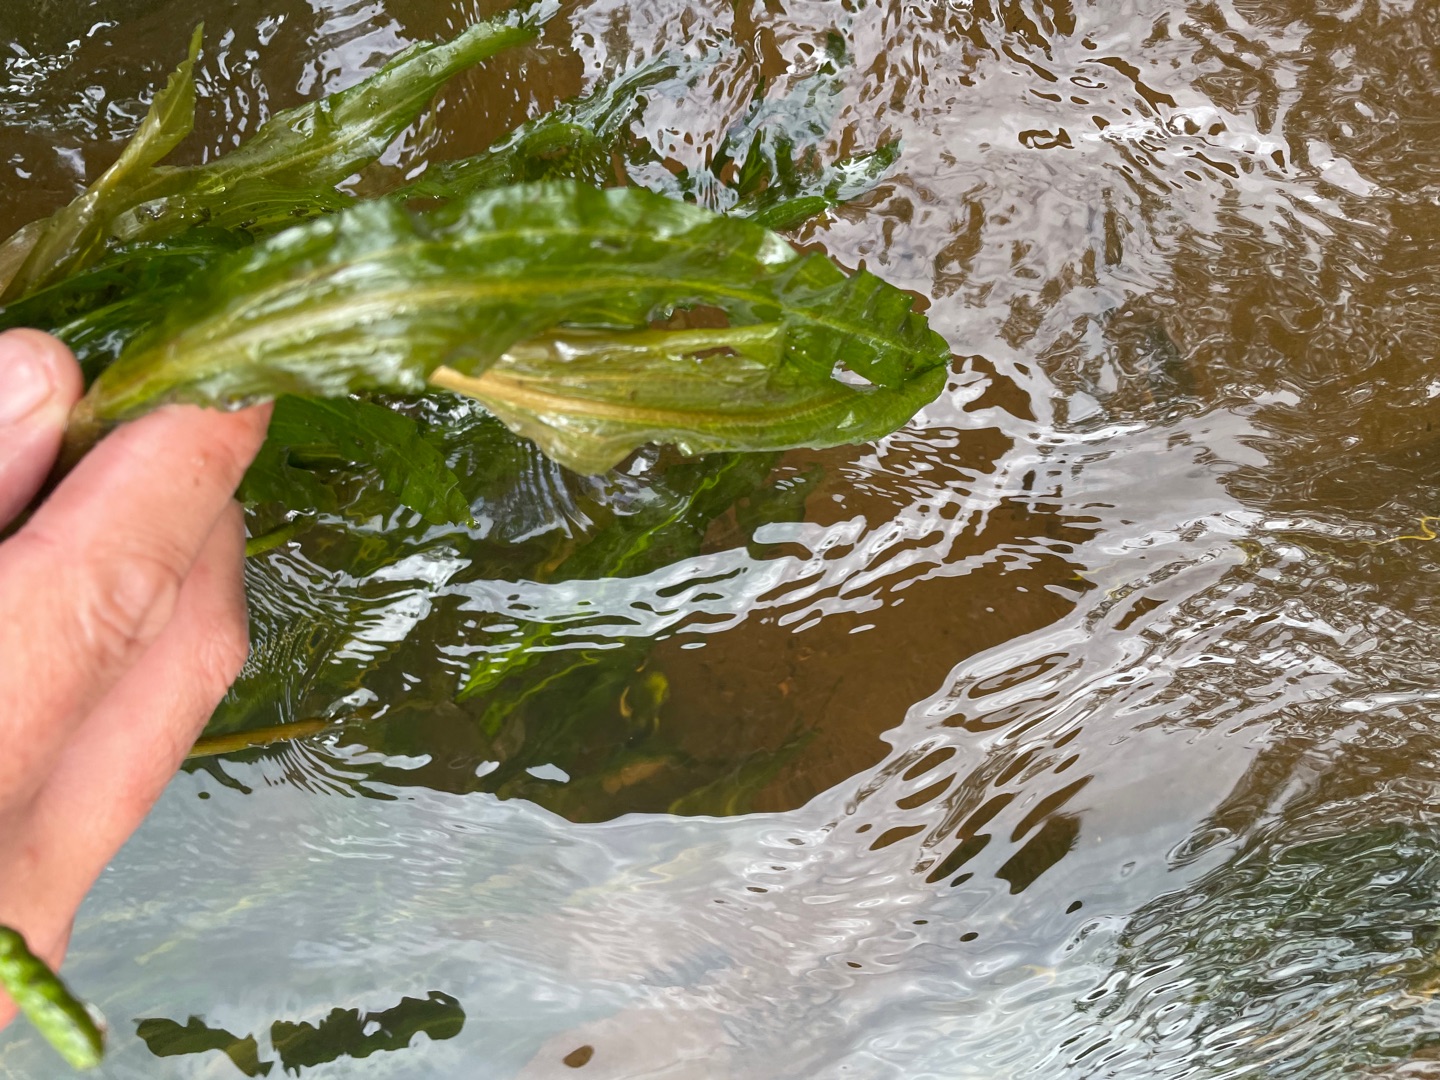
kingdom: Plantae
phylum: Tracheophyta
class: Liliopsida
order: Alismatales
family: Potamogetonaceae
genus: Potamogeton
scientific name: Potamogeton alpinus
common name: Rust-vandaks
